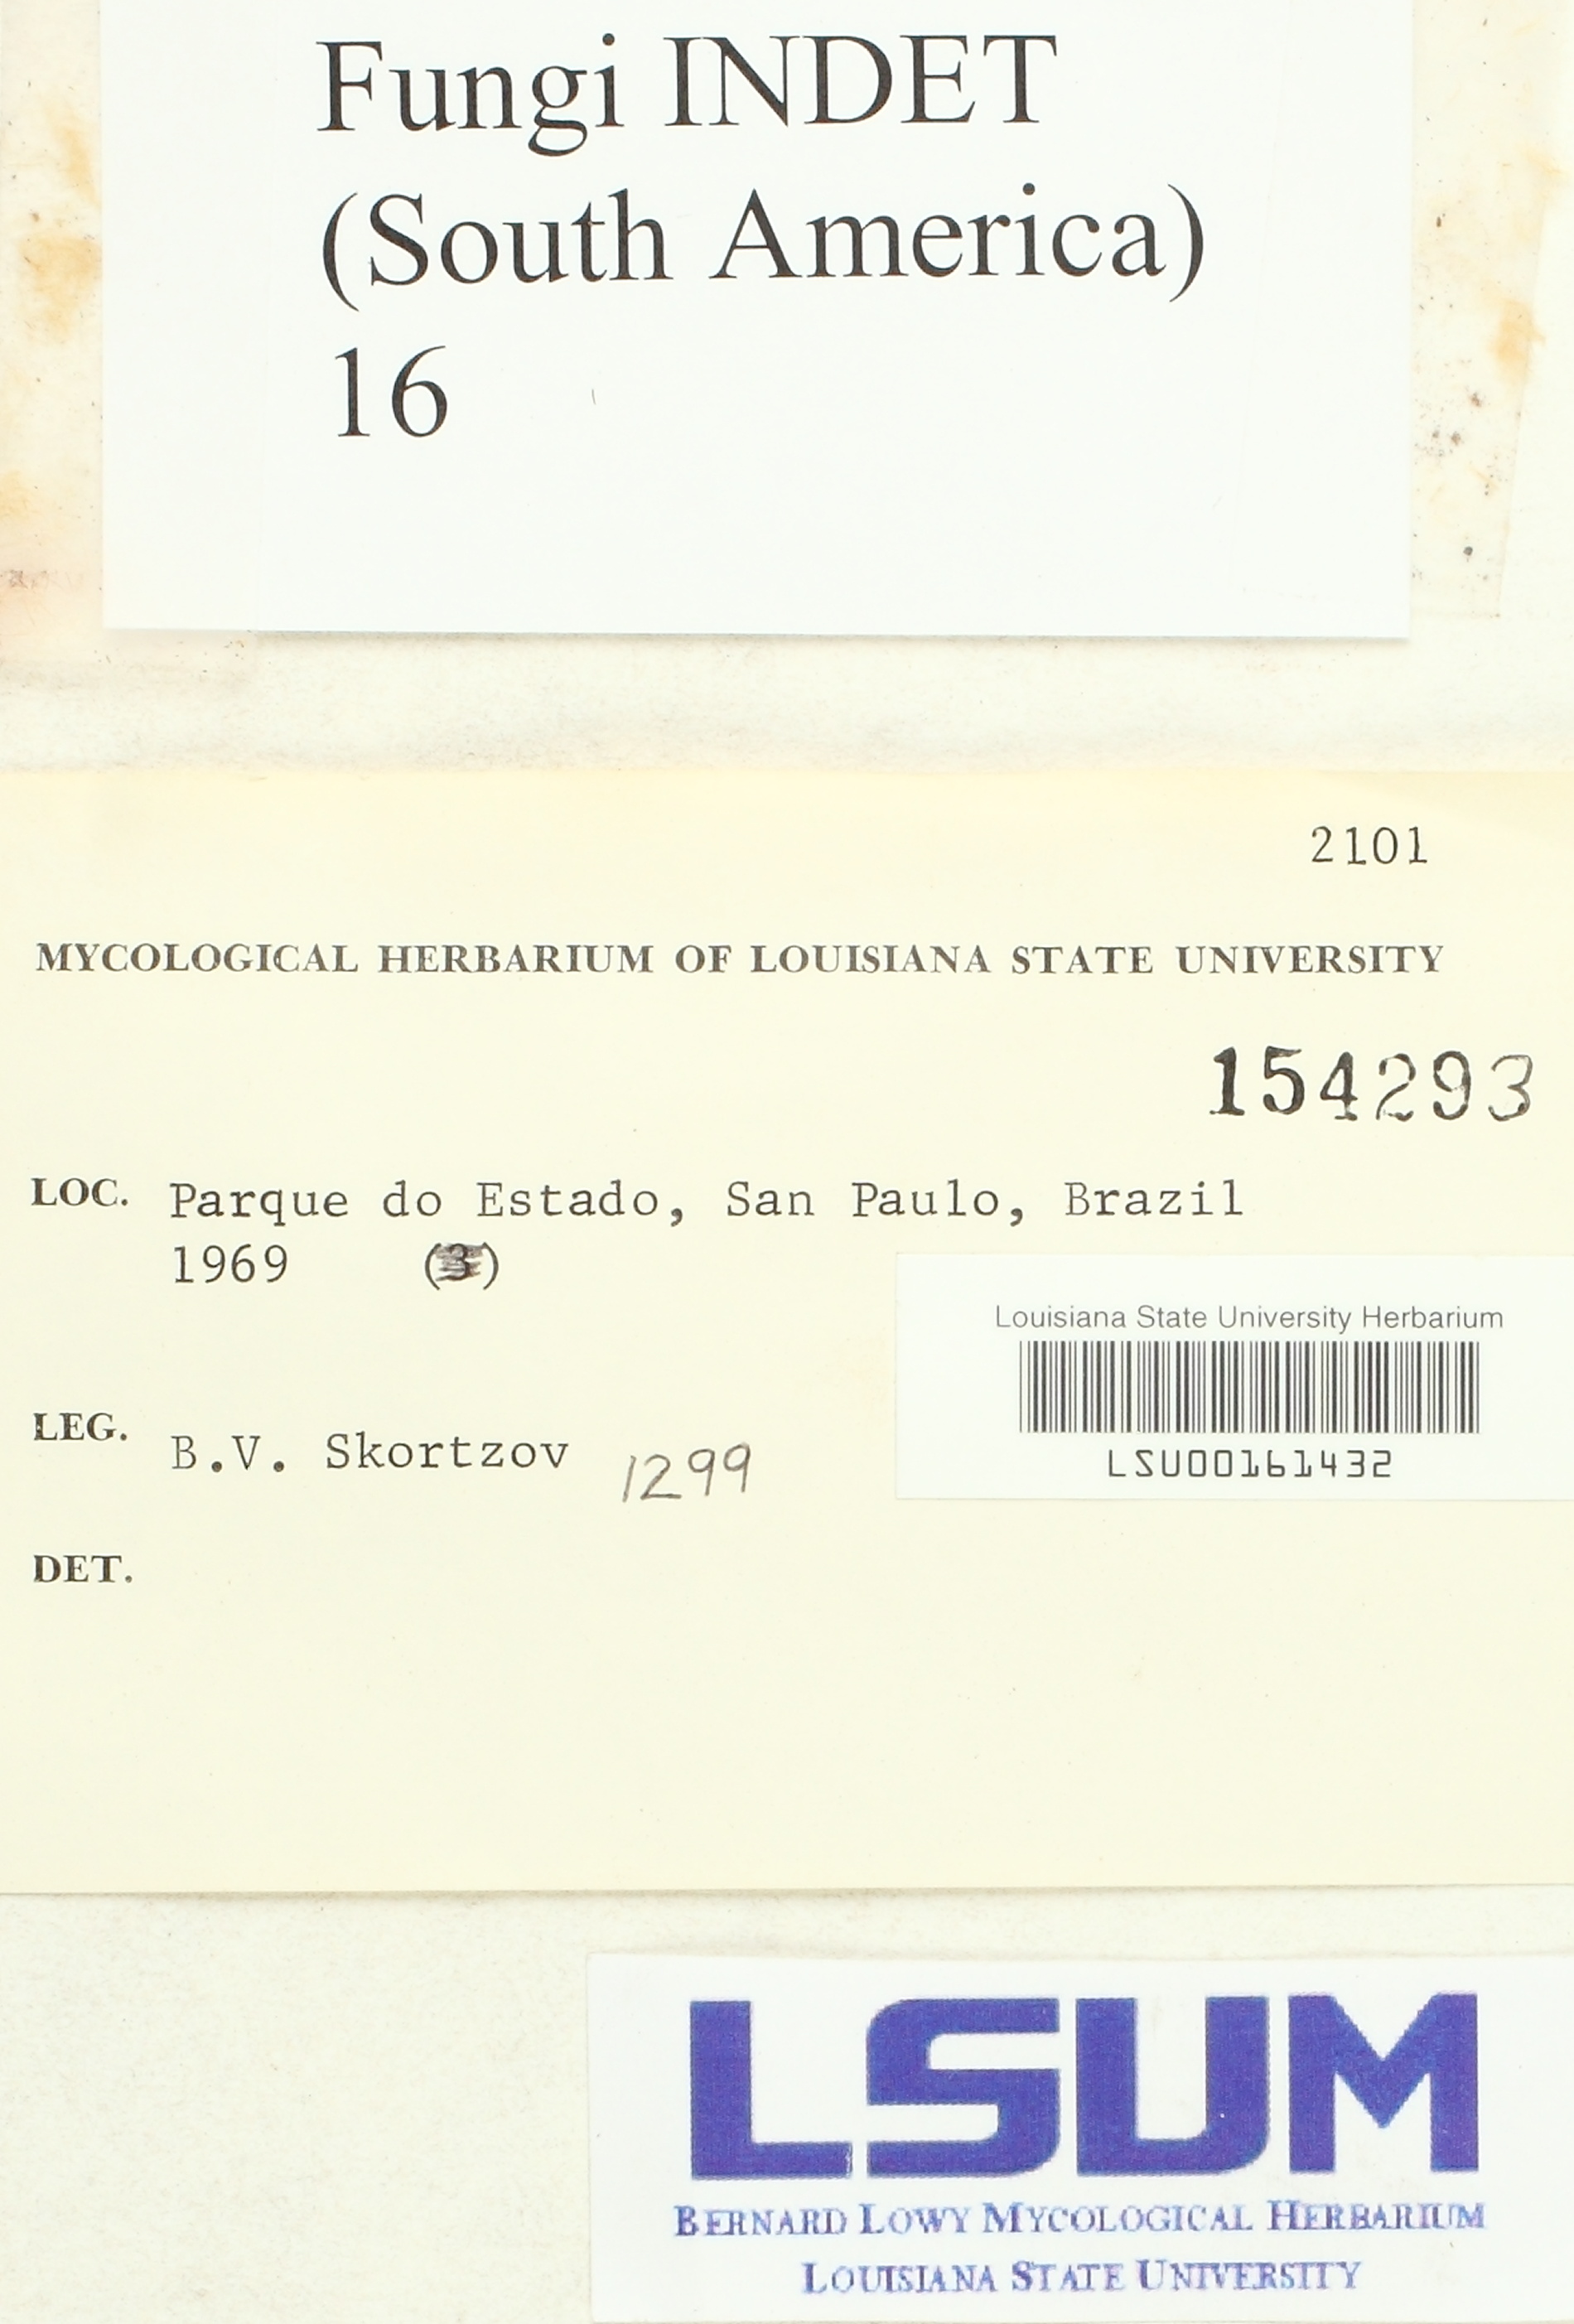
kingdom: Fungi
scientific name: Fungi
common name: Fungi
